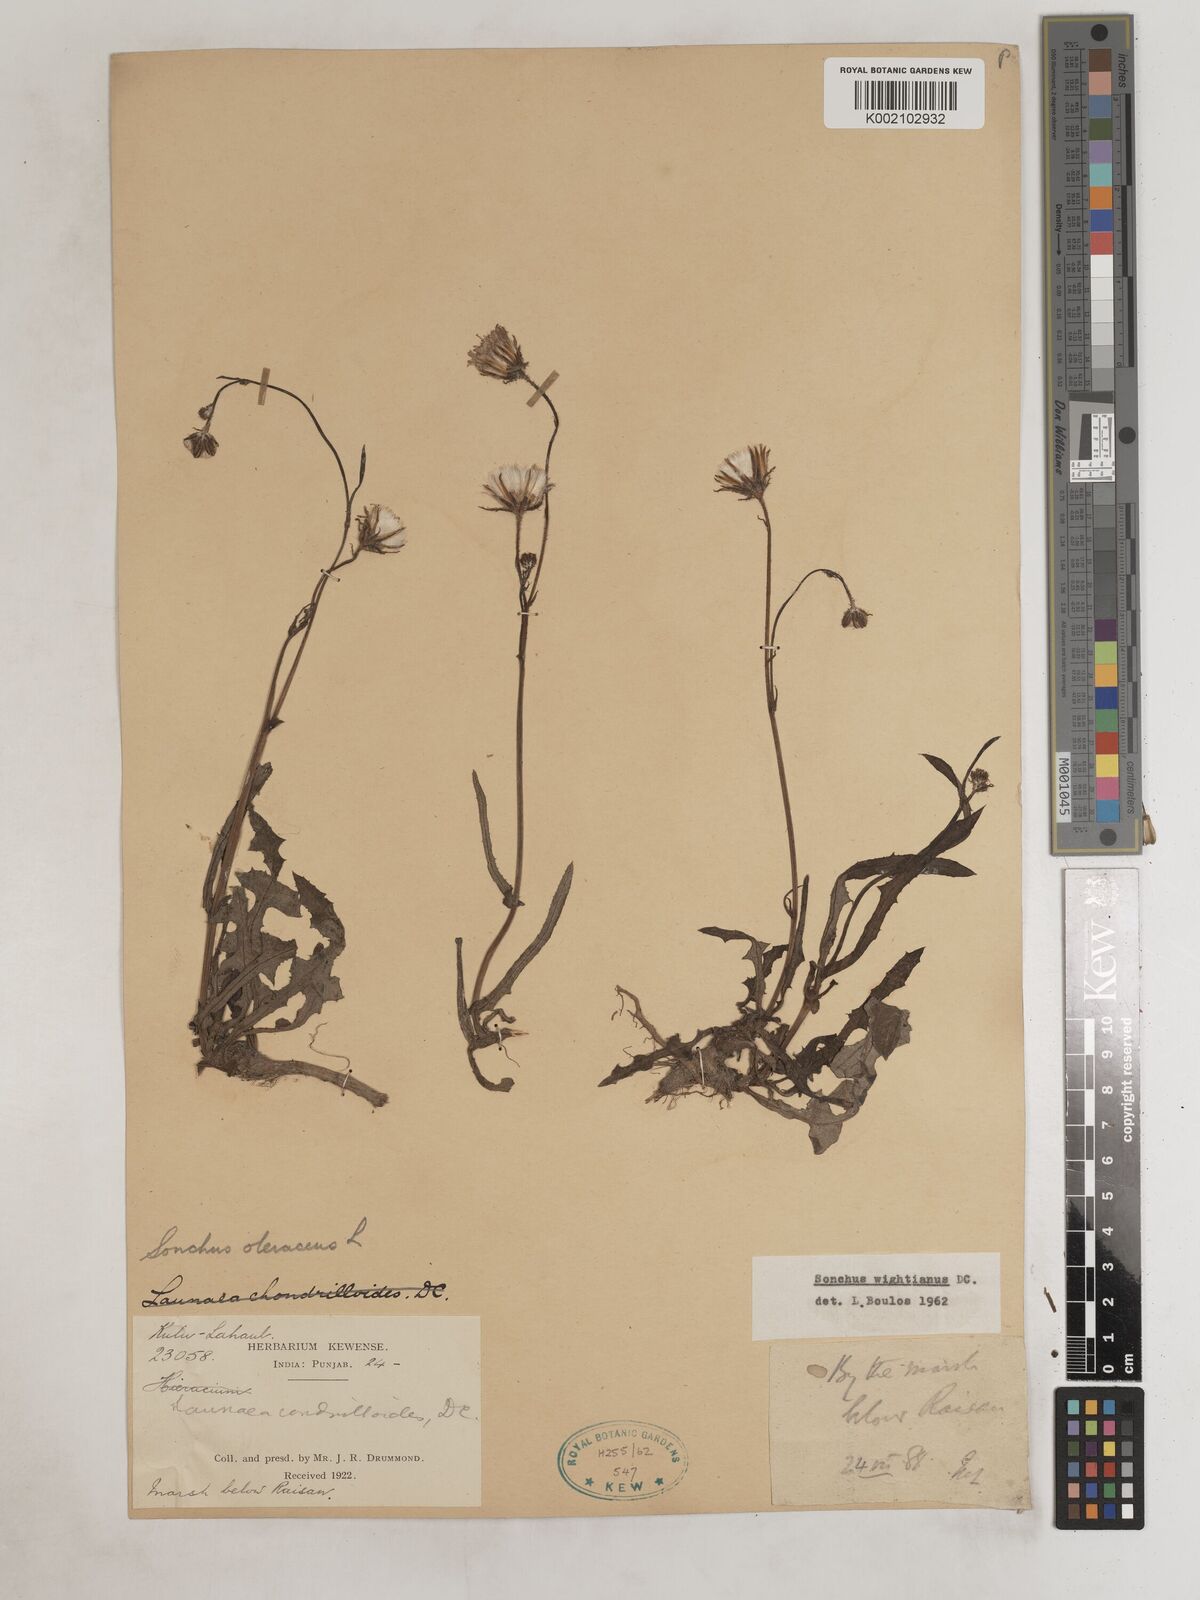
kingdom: Plantae
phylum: Tracheophyta
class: Magnoliopsida
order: Asterales
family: Asteraceae
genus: Sonchus
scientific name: Sonchus arvensis
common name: Perennial sow-thistle
